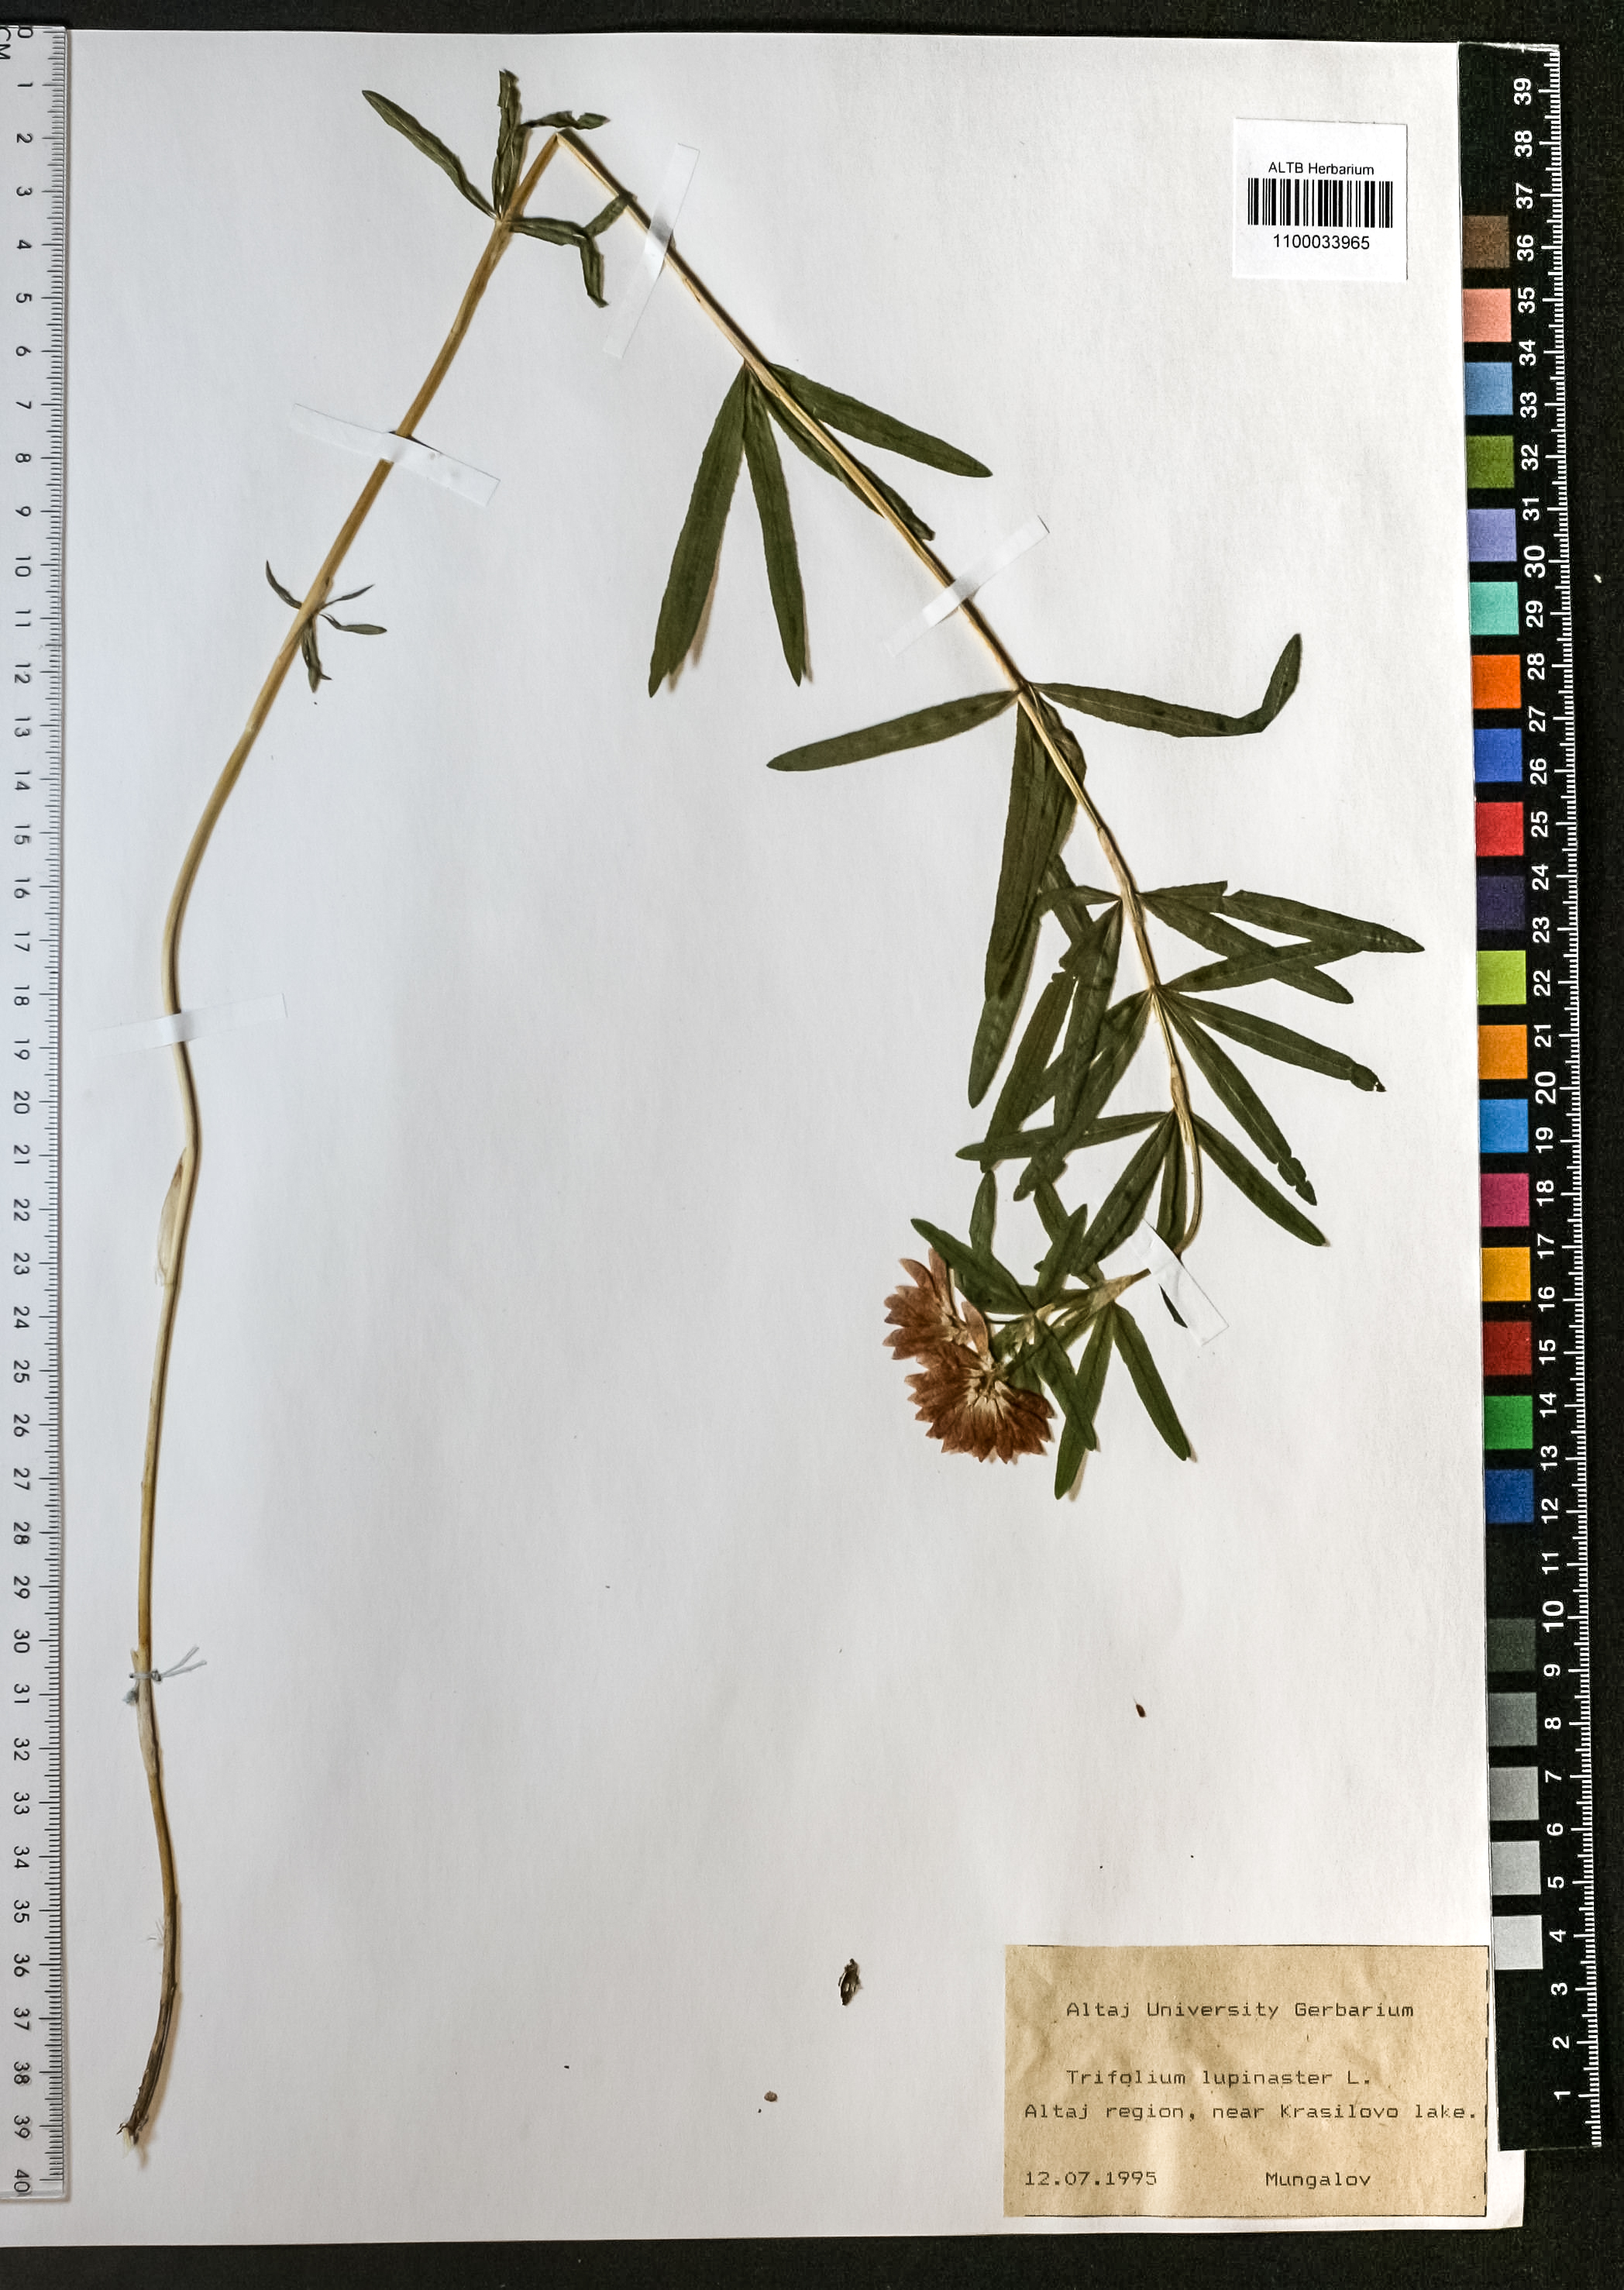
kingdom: Plantae
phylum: Tracheophyta
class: Magnoliopsida
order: Fabales
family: Fabaceae
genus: Trifolium
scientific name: Trifolium lupinaster
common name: Lupine clover
